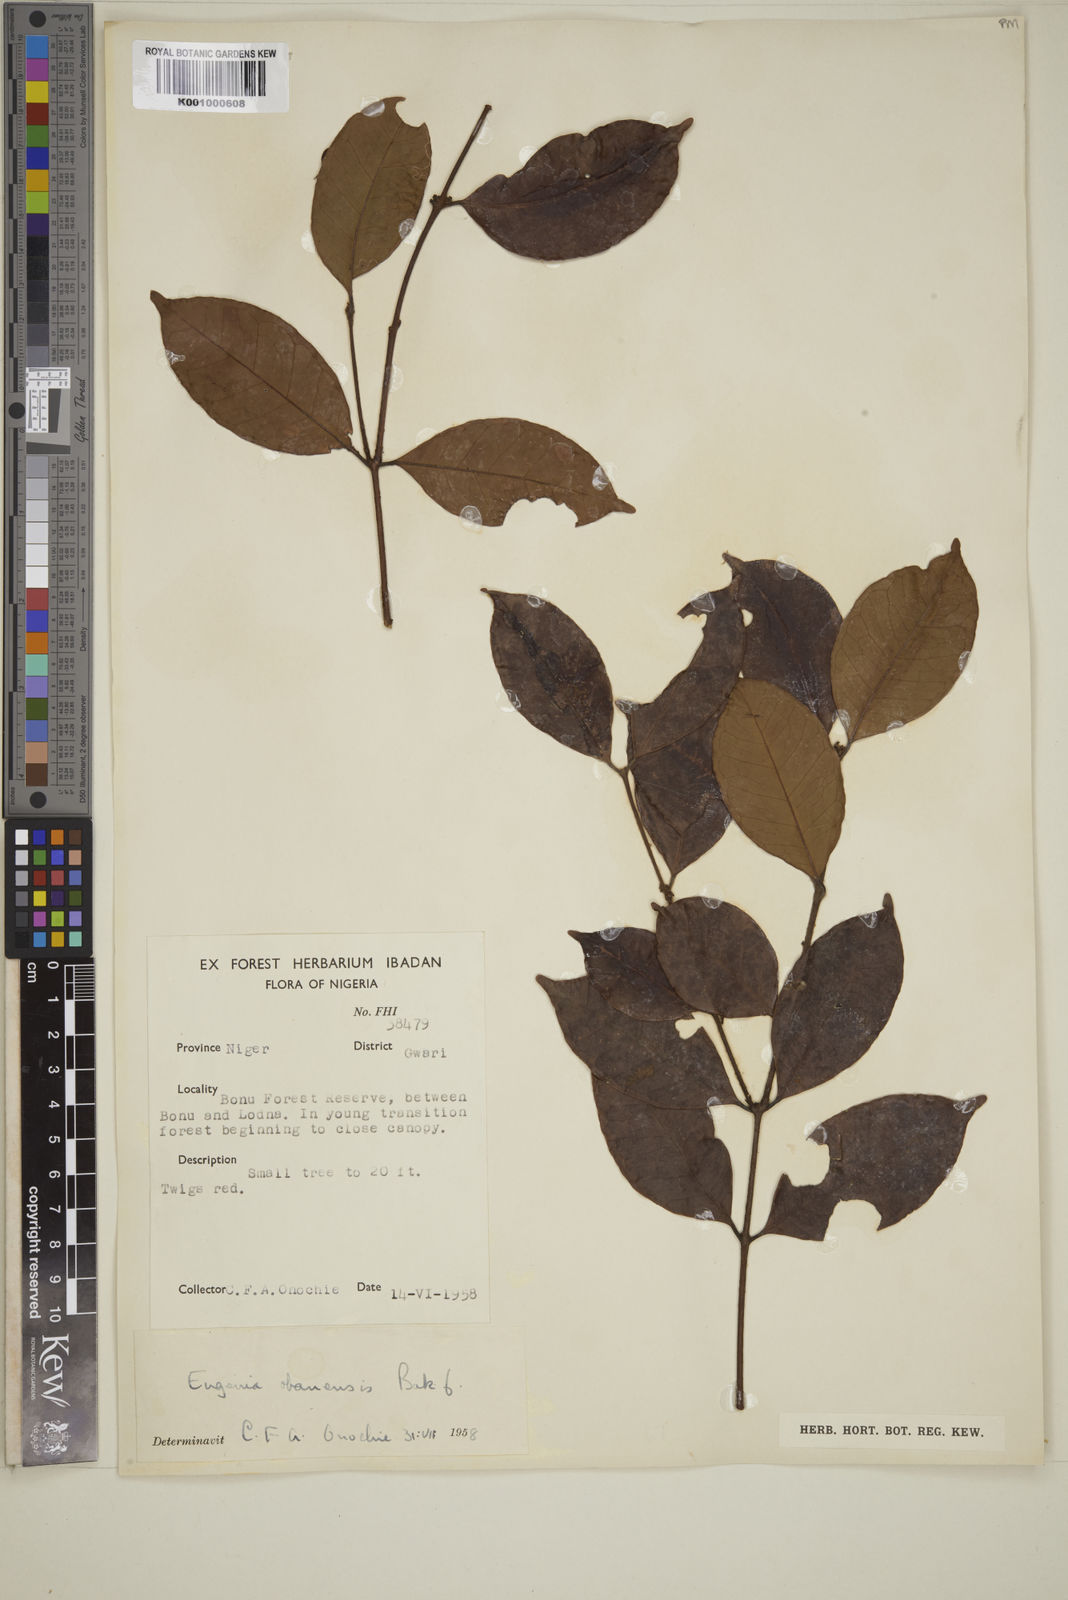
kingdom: Plantae
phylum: Tracheophyta
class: Magnoliopsida
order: Myrtales
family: Myrtaceae
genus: Eugenia
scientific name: Eugenia obanensis
